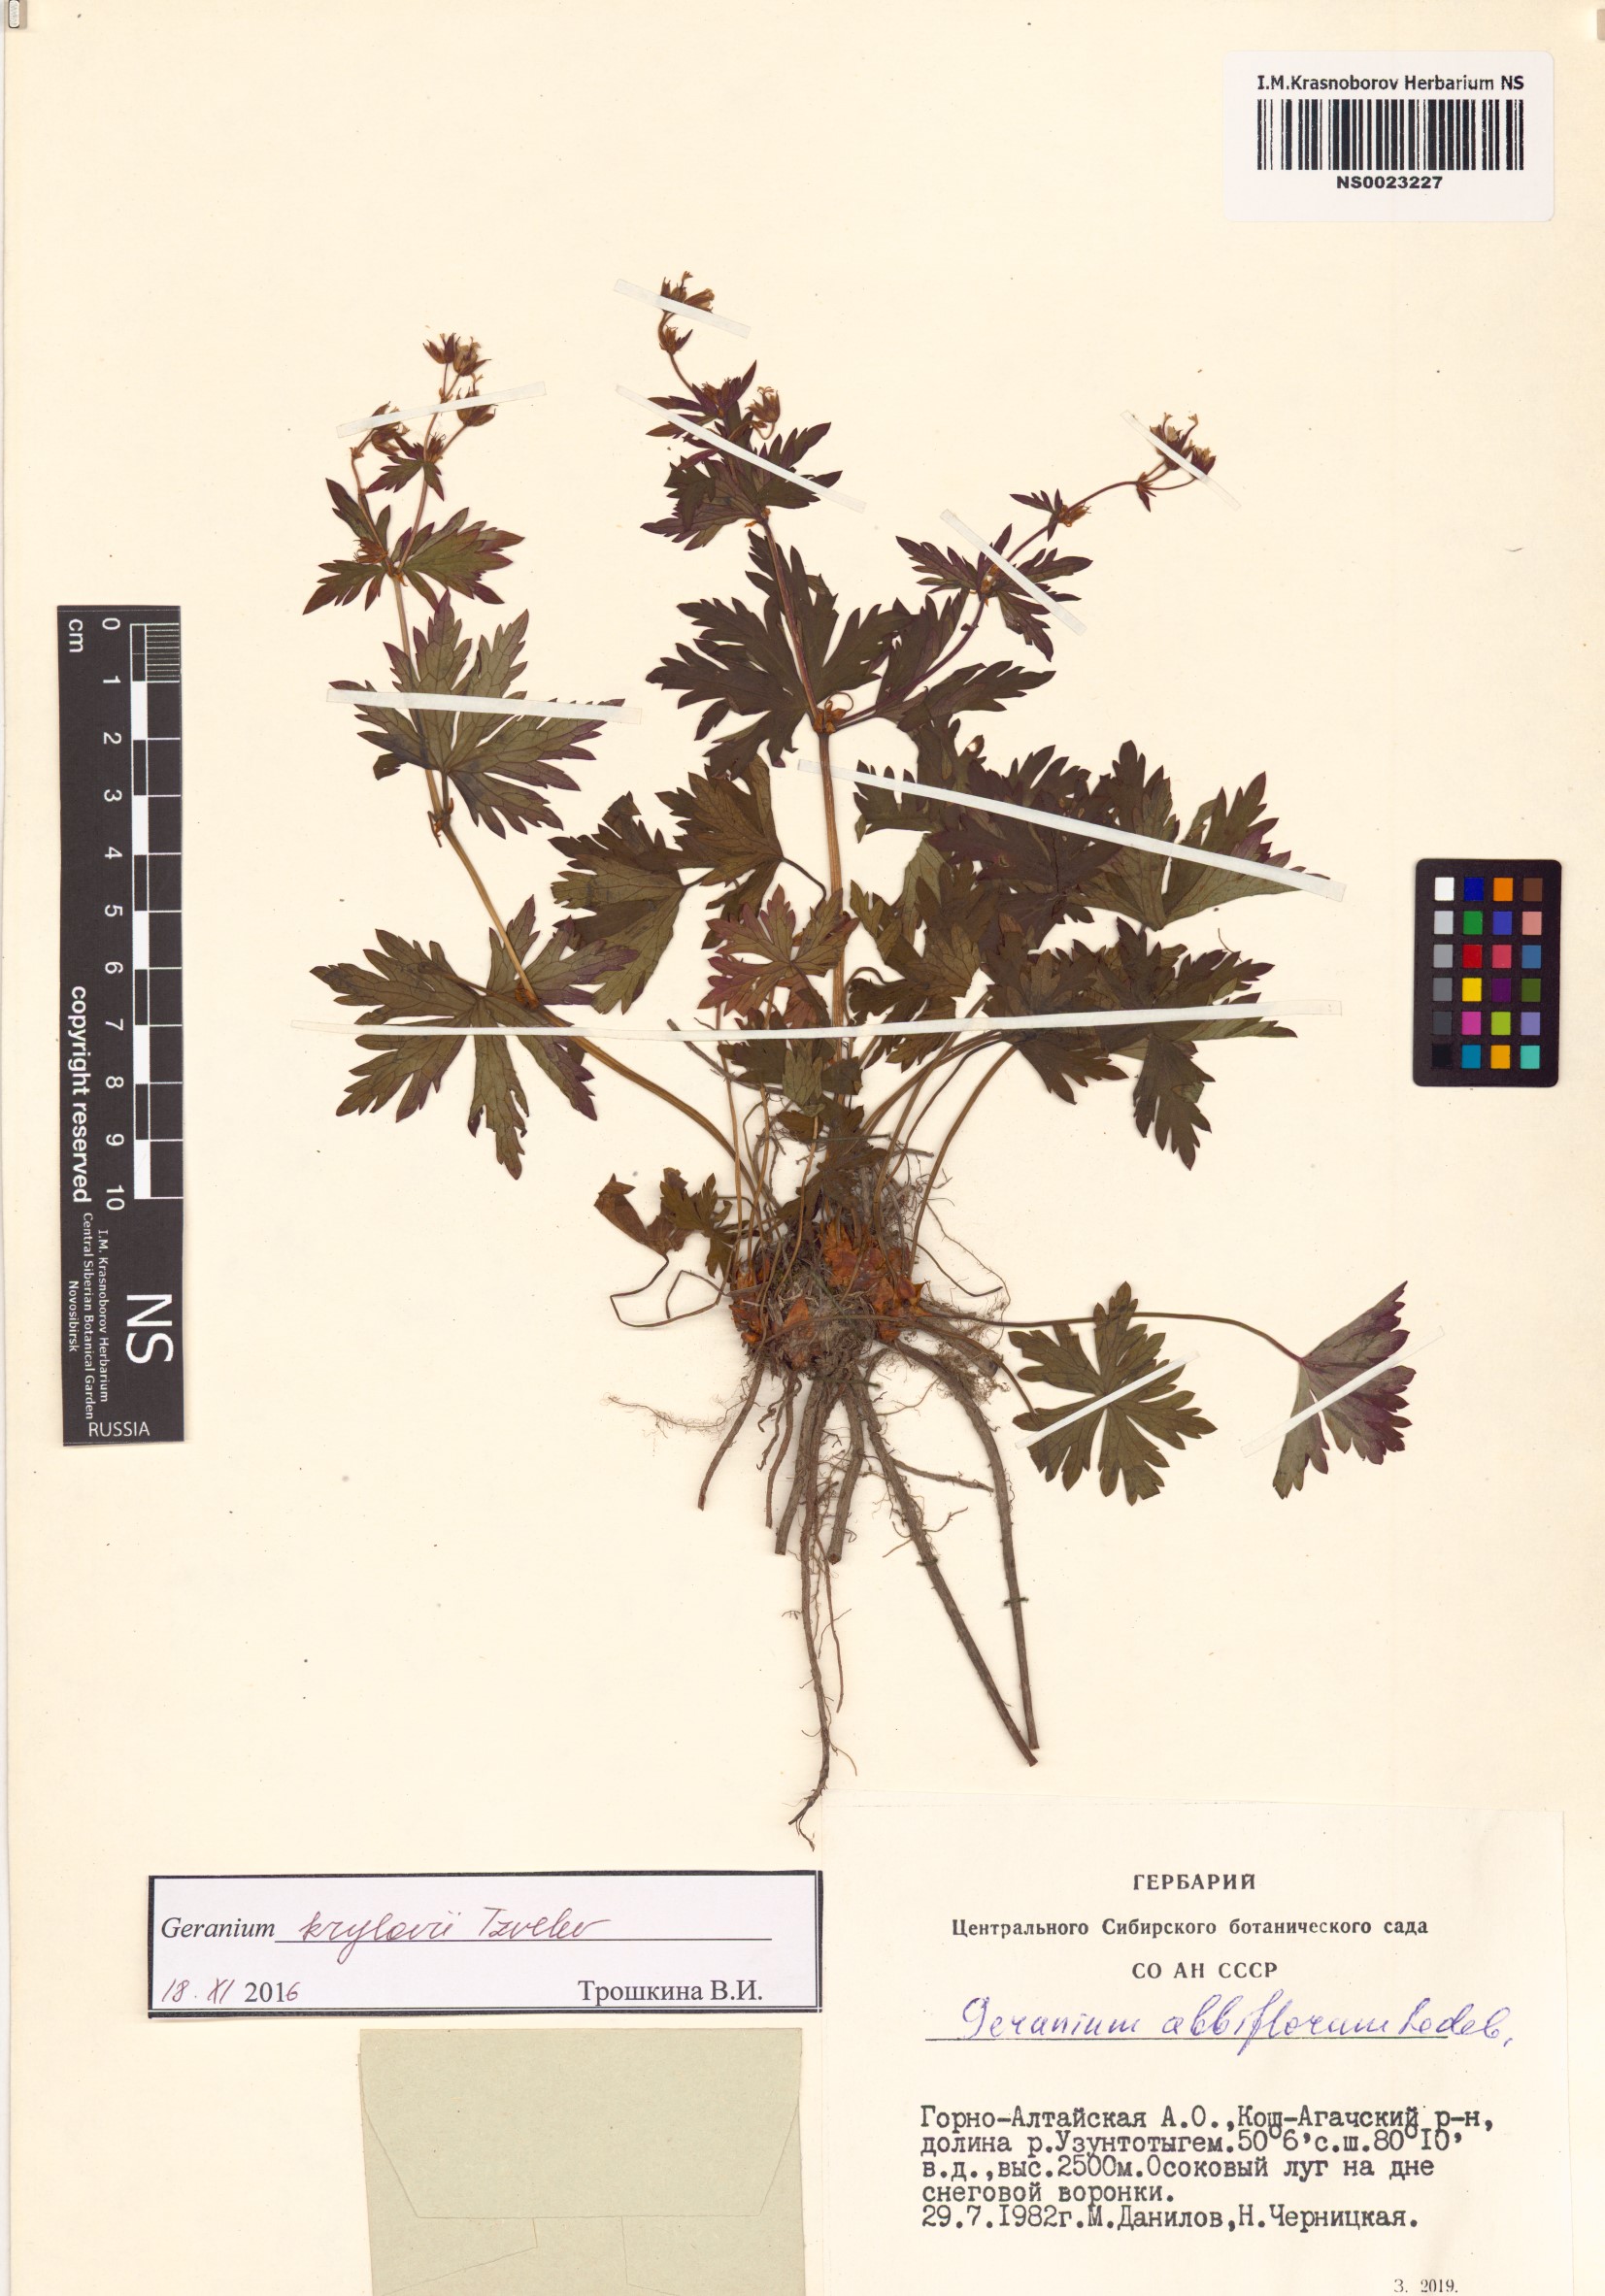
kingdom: Plantae
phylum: Tracheophyta
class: Magnoliopsida
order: Geraniales
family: Geraniaceae
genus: Geranium
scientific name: Geranium sylvaticum
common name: Wood crane's-bill
